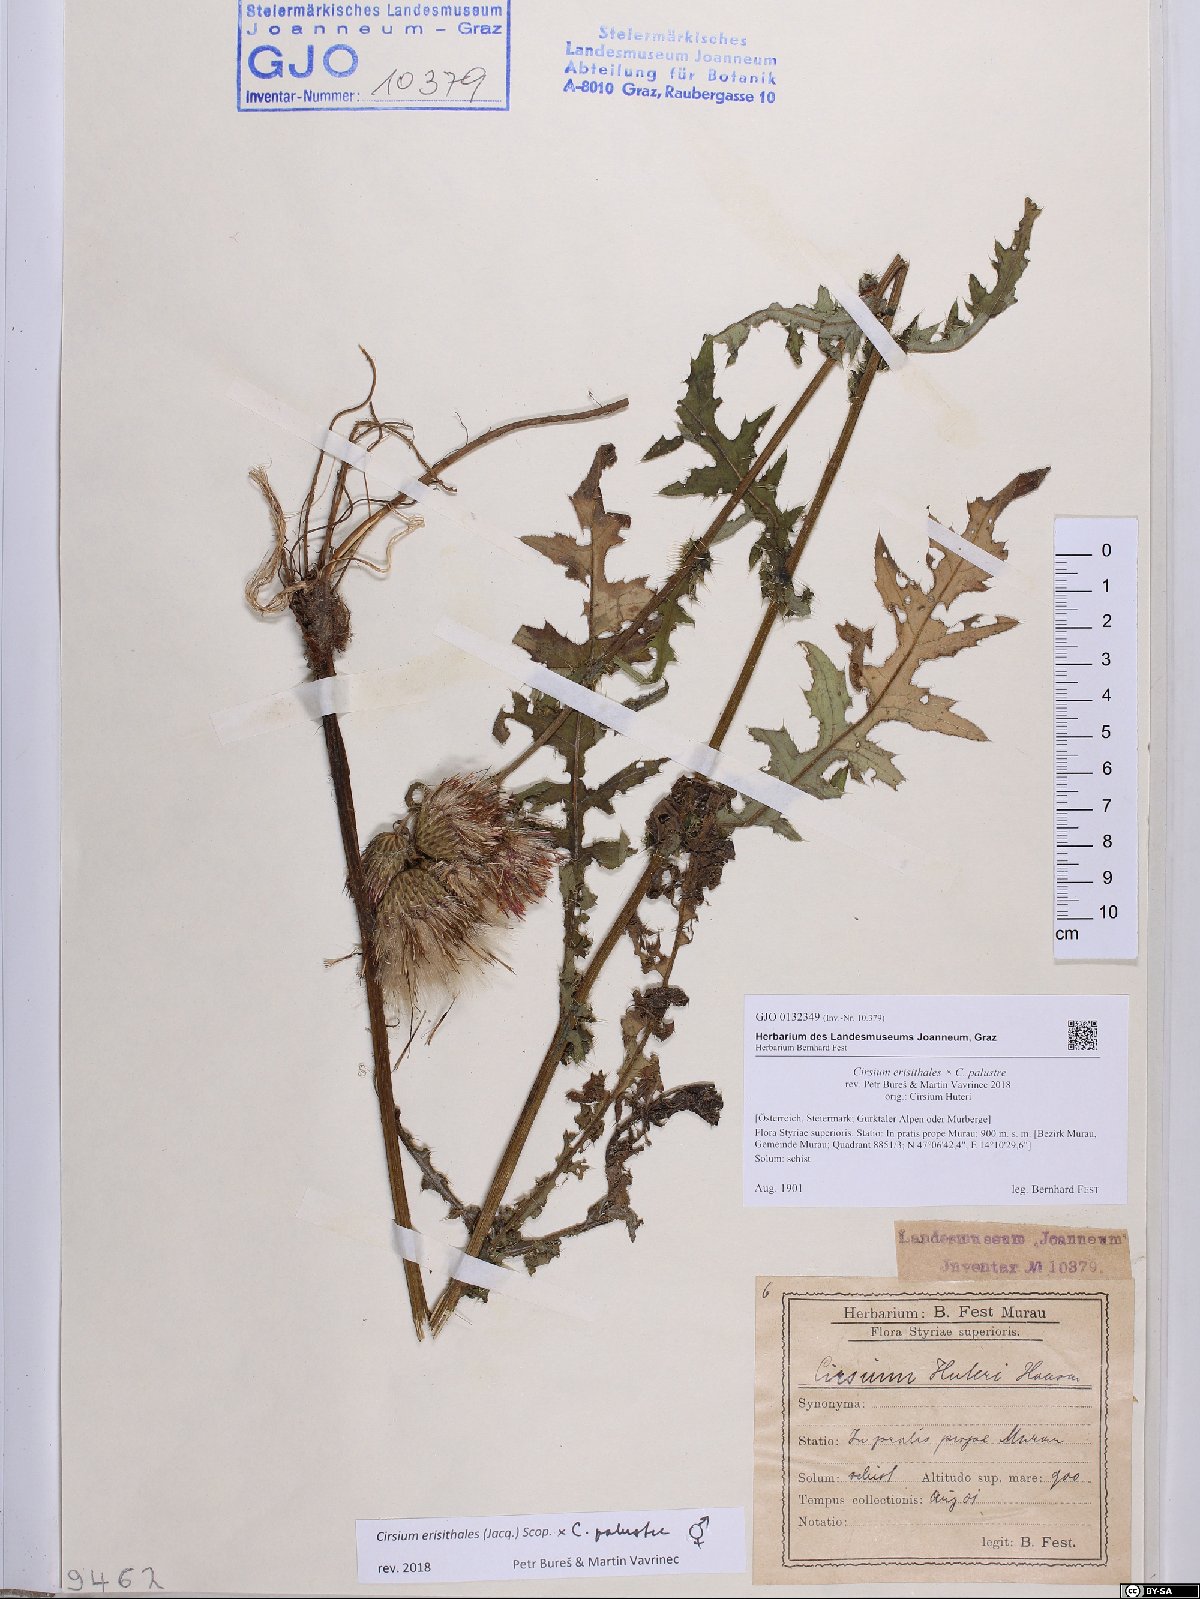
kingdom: Plantae
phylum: Tracheophyta
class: Magnoliopsida
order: Asterales
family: Asteraceae
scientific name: Asteraceae
